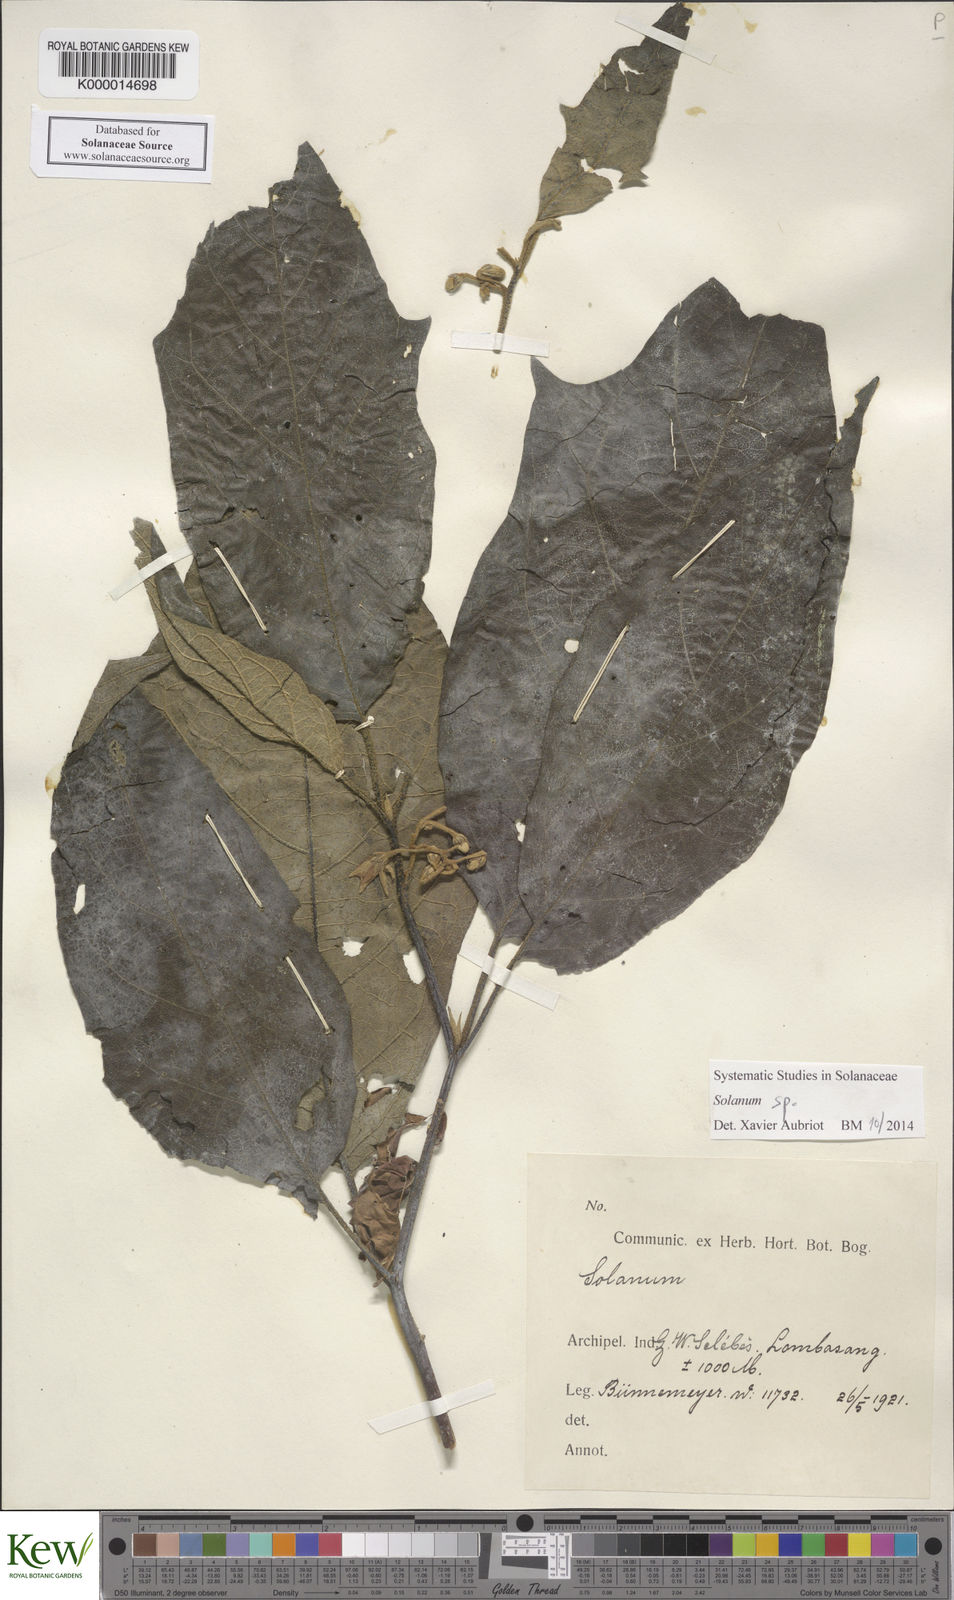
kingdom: Plantae
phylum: Tracheophyta
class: Magnoliopsida
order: Solanales
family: Solanaceae
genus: Solanum
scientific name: Solanum pubescens
